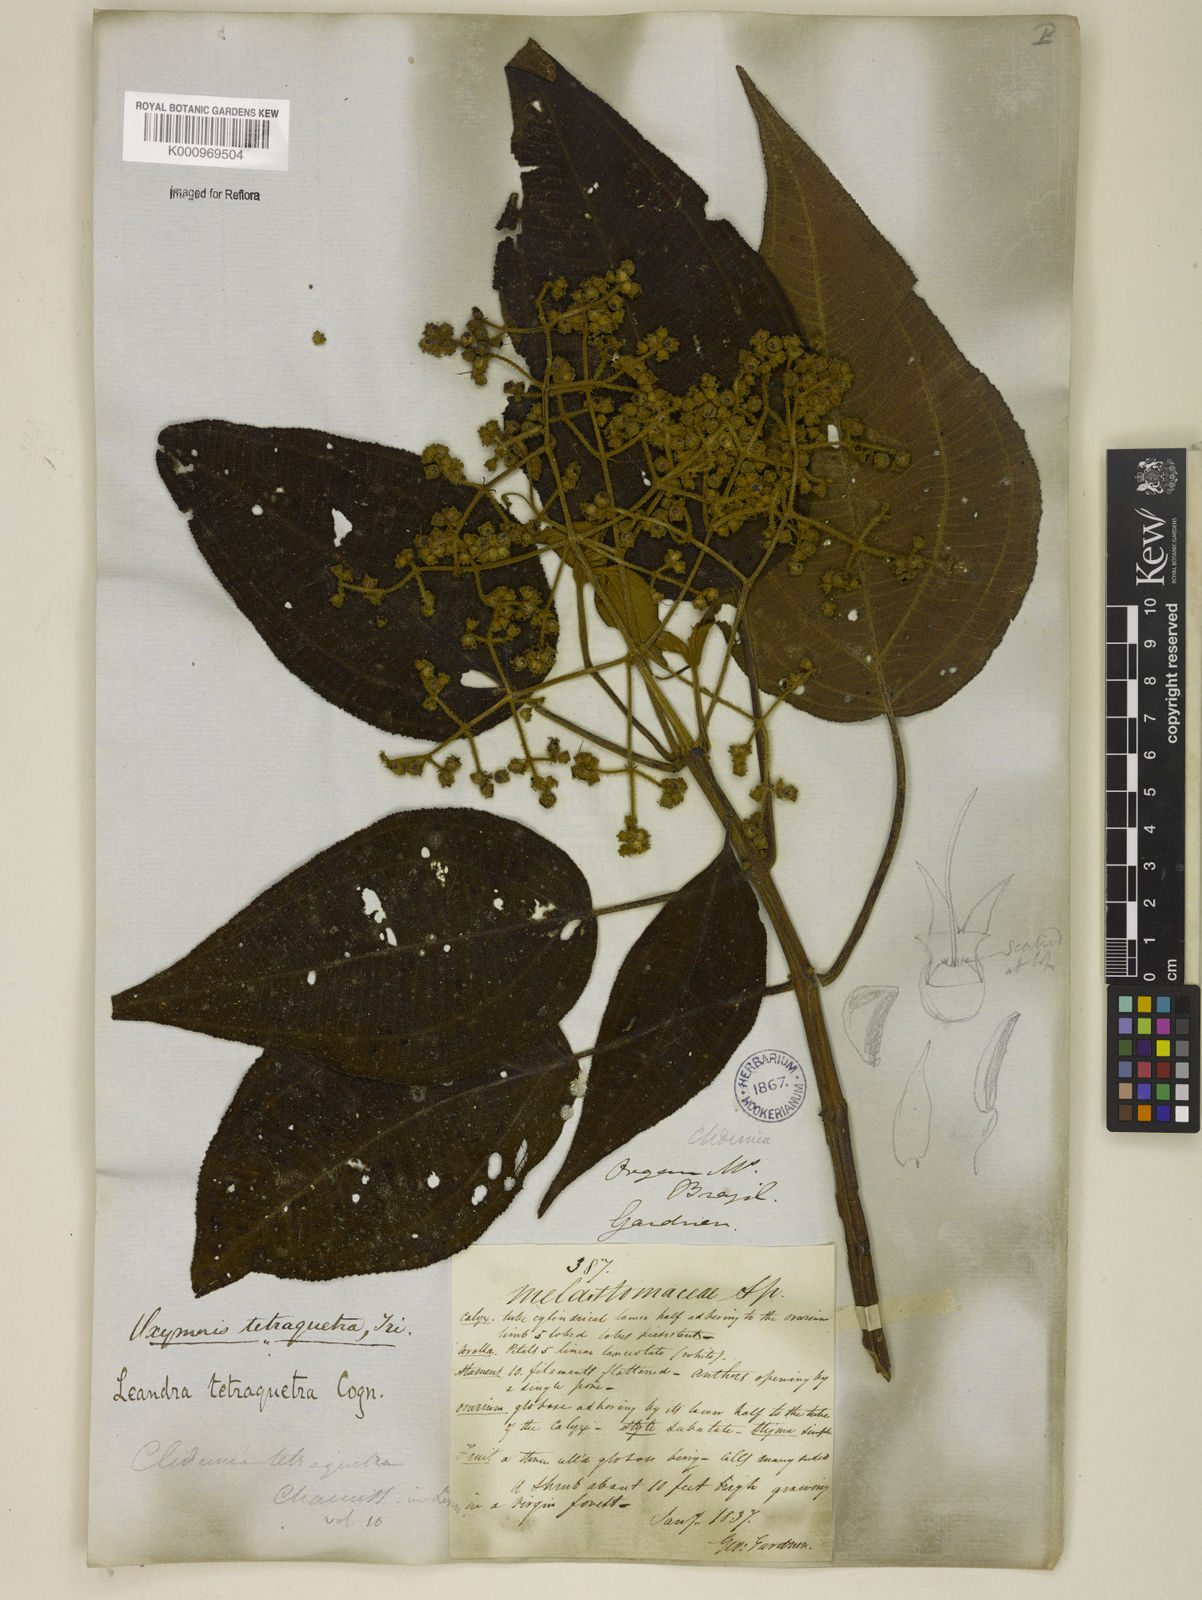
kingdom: Plantae
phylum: Tracheophyta
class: Magnoliopsida
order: Myrtales
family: Melastomataceae
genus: Miconia
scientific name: Miconia tetraquetra
